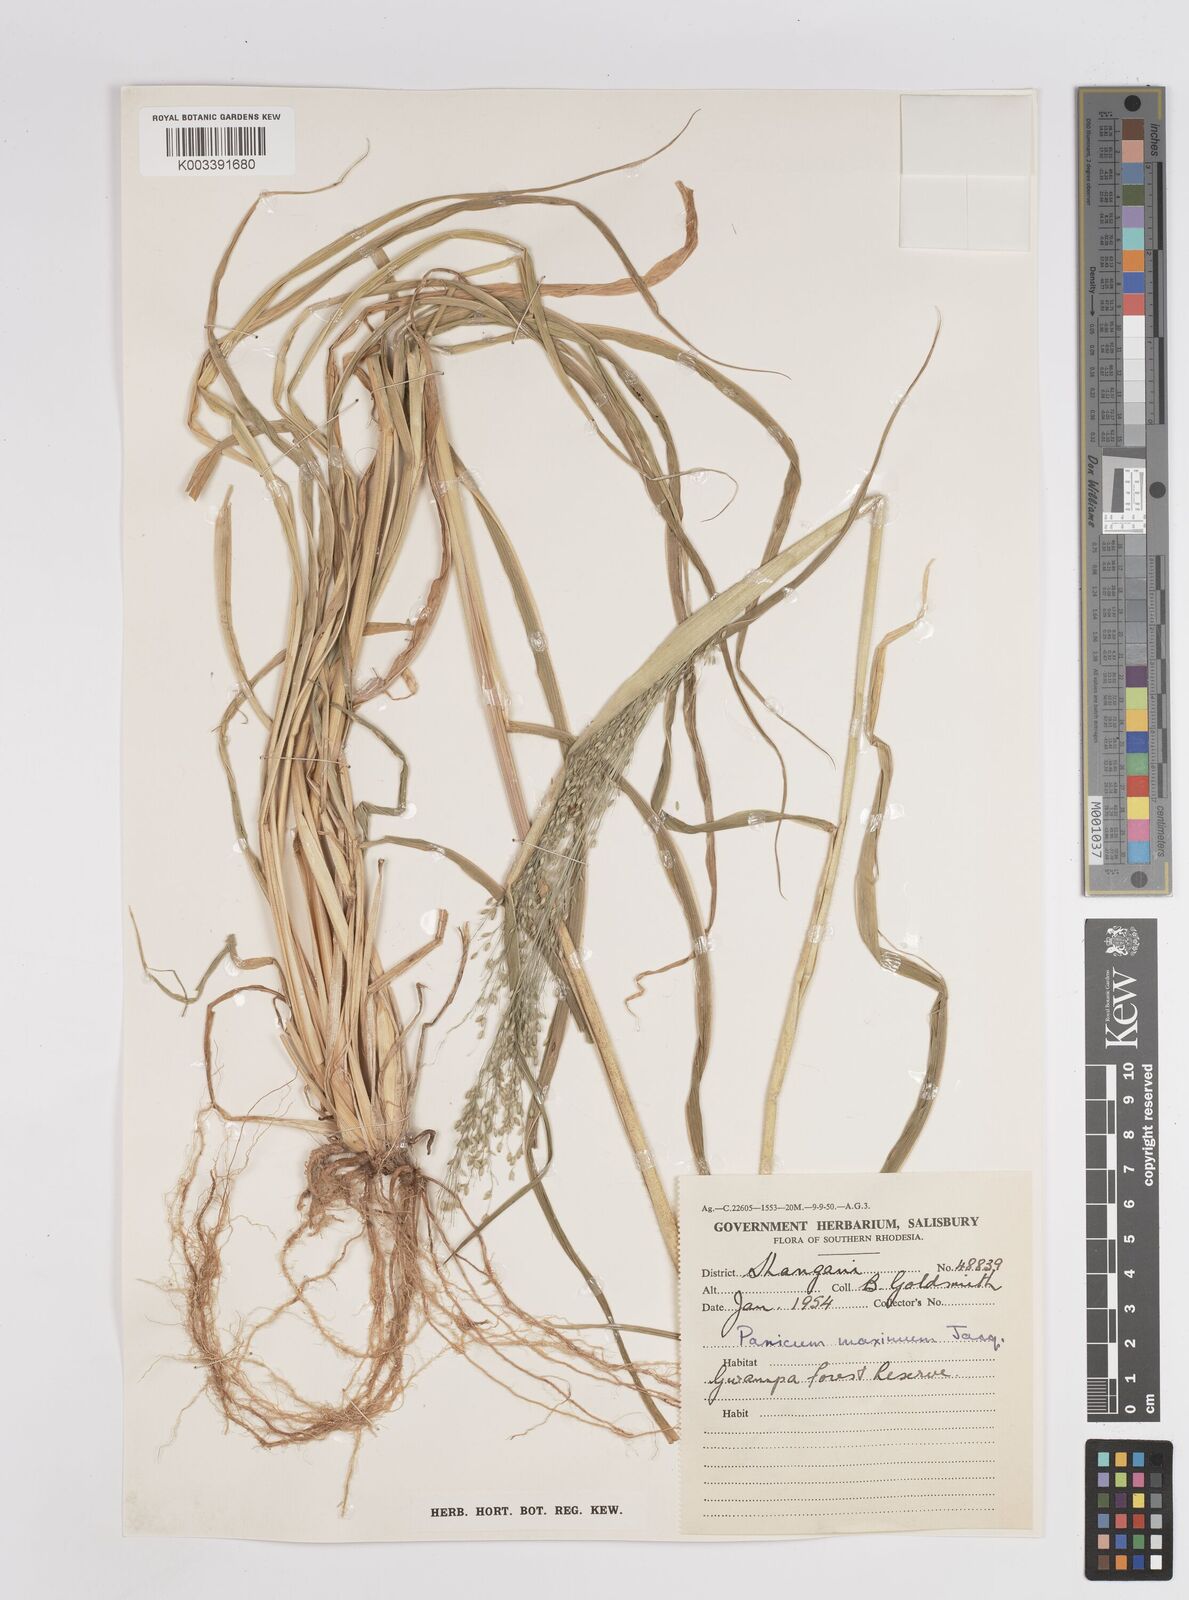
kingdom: Plantae
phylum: Tracheophyta
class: Liliopsida
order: Poales
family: Poaceae
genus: Megathyrsus
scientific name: Megathyrsus maximus
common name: Guineagrass
